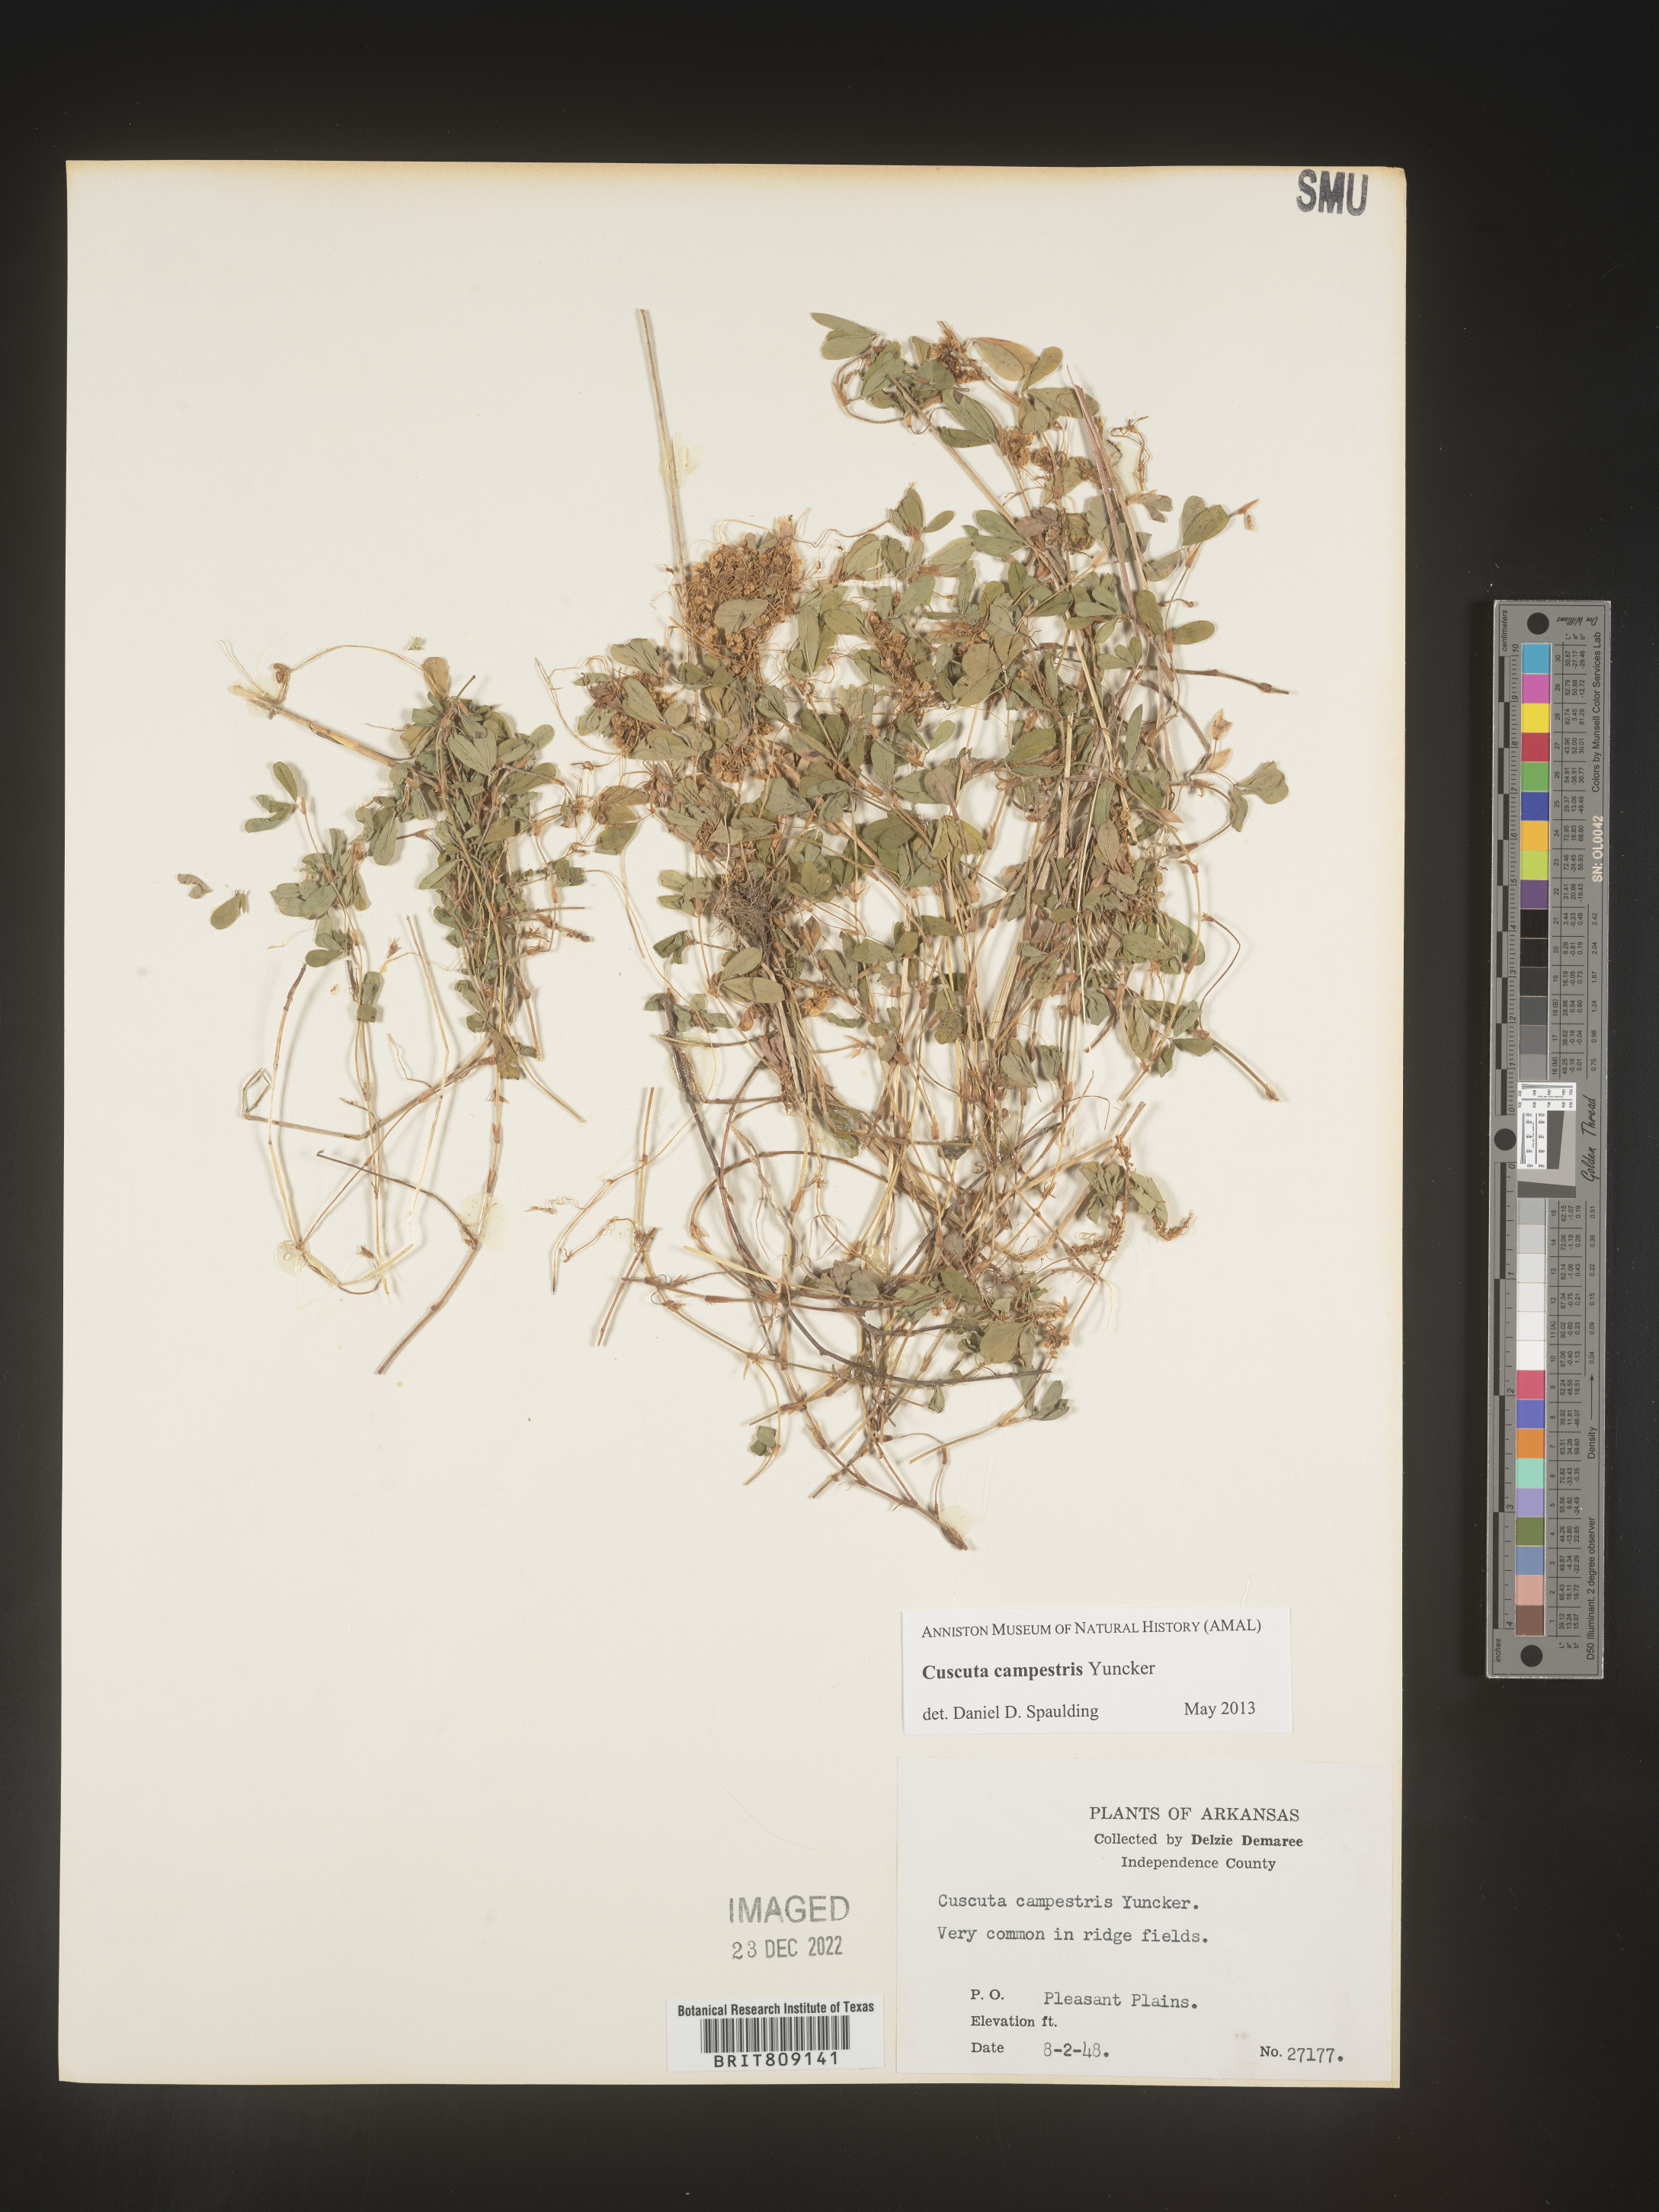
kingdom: Plantae
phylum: Tracheophyta
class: Magnoliopsida
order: Solanales
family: Convolvulaceae
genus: Cuscuta
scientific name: Cuscuta campestris
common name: Yellow dodder
